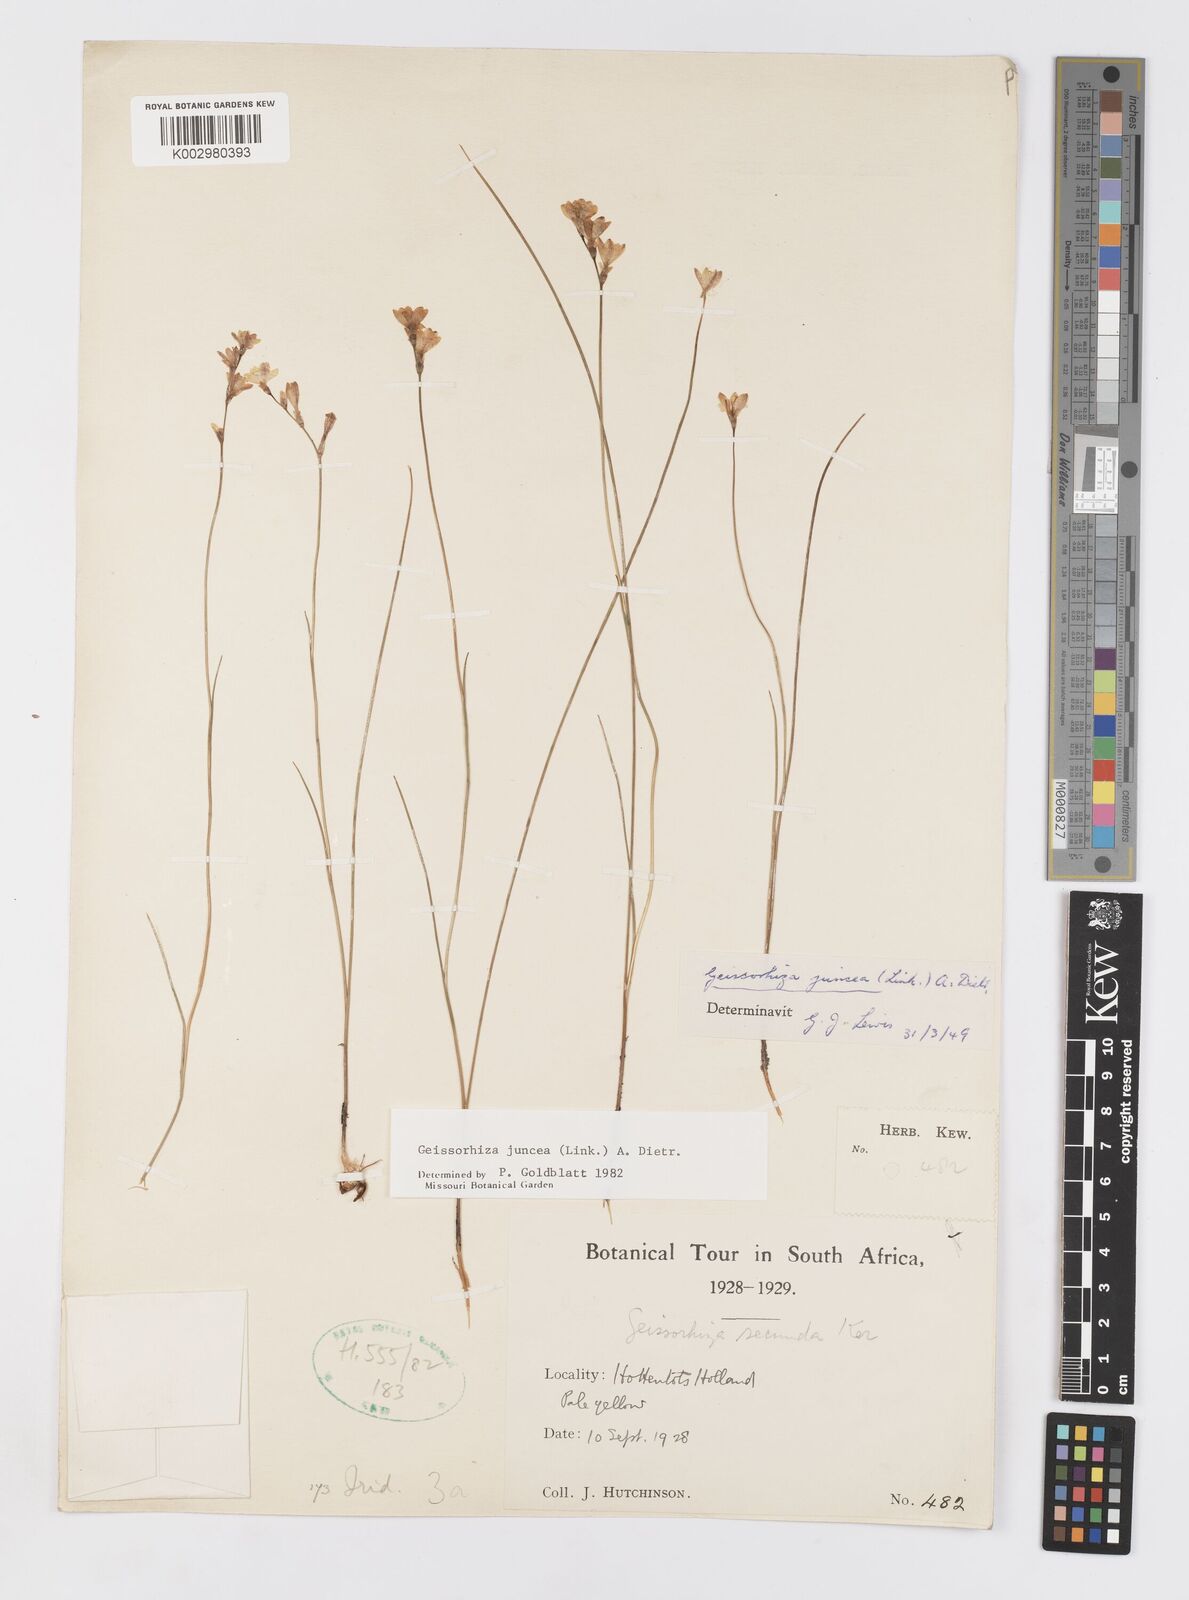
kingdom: Plantae
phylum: Tracheophyta
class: Liliopsida
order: Asparagales
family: Iridaceae
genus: Geissorhiza
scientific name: Geissorhiza juncea
